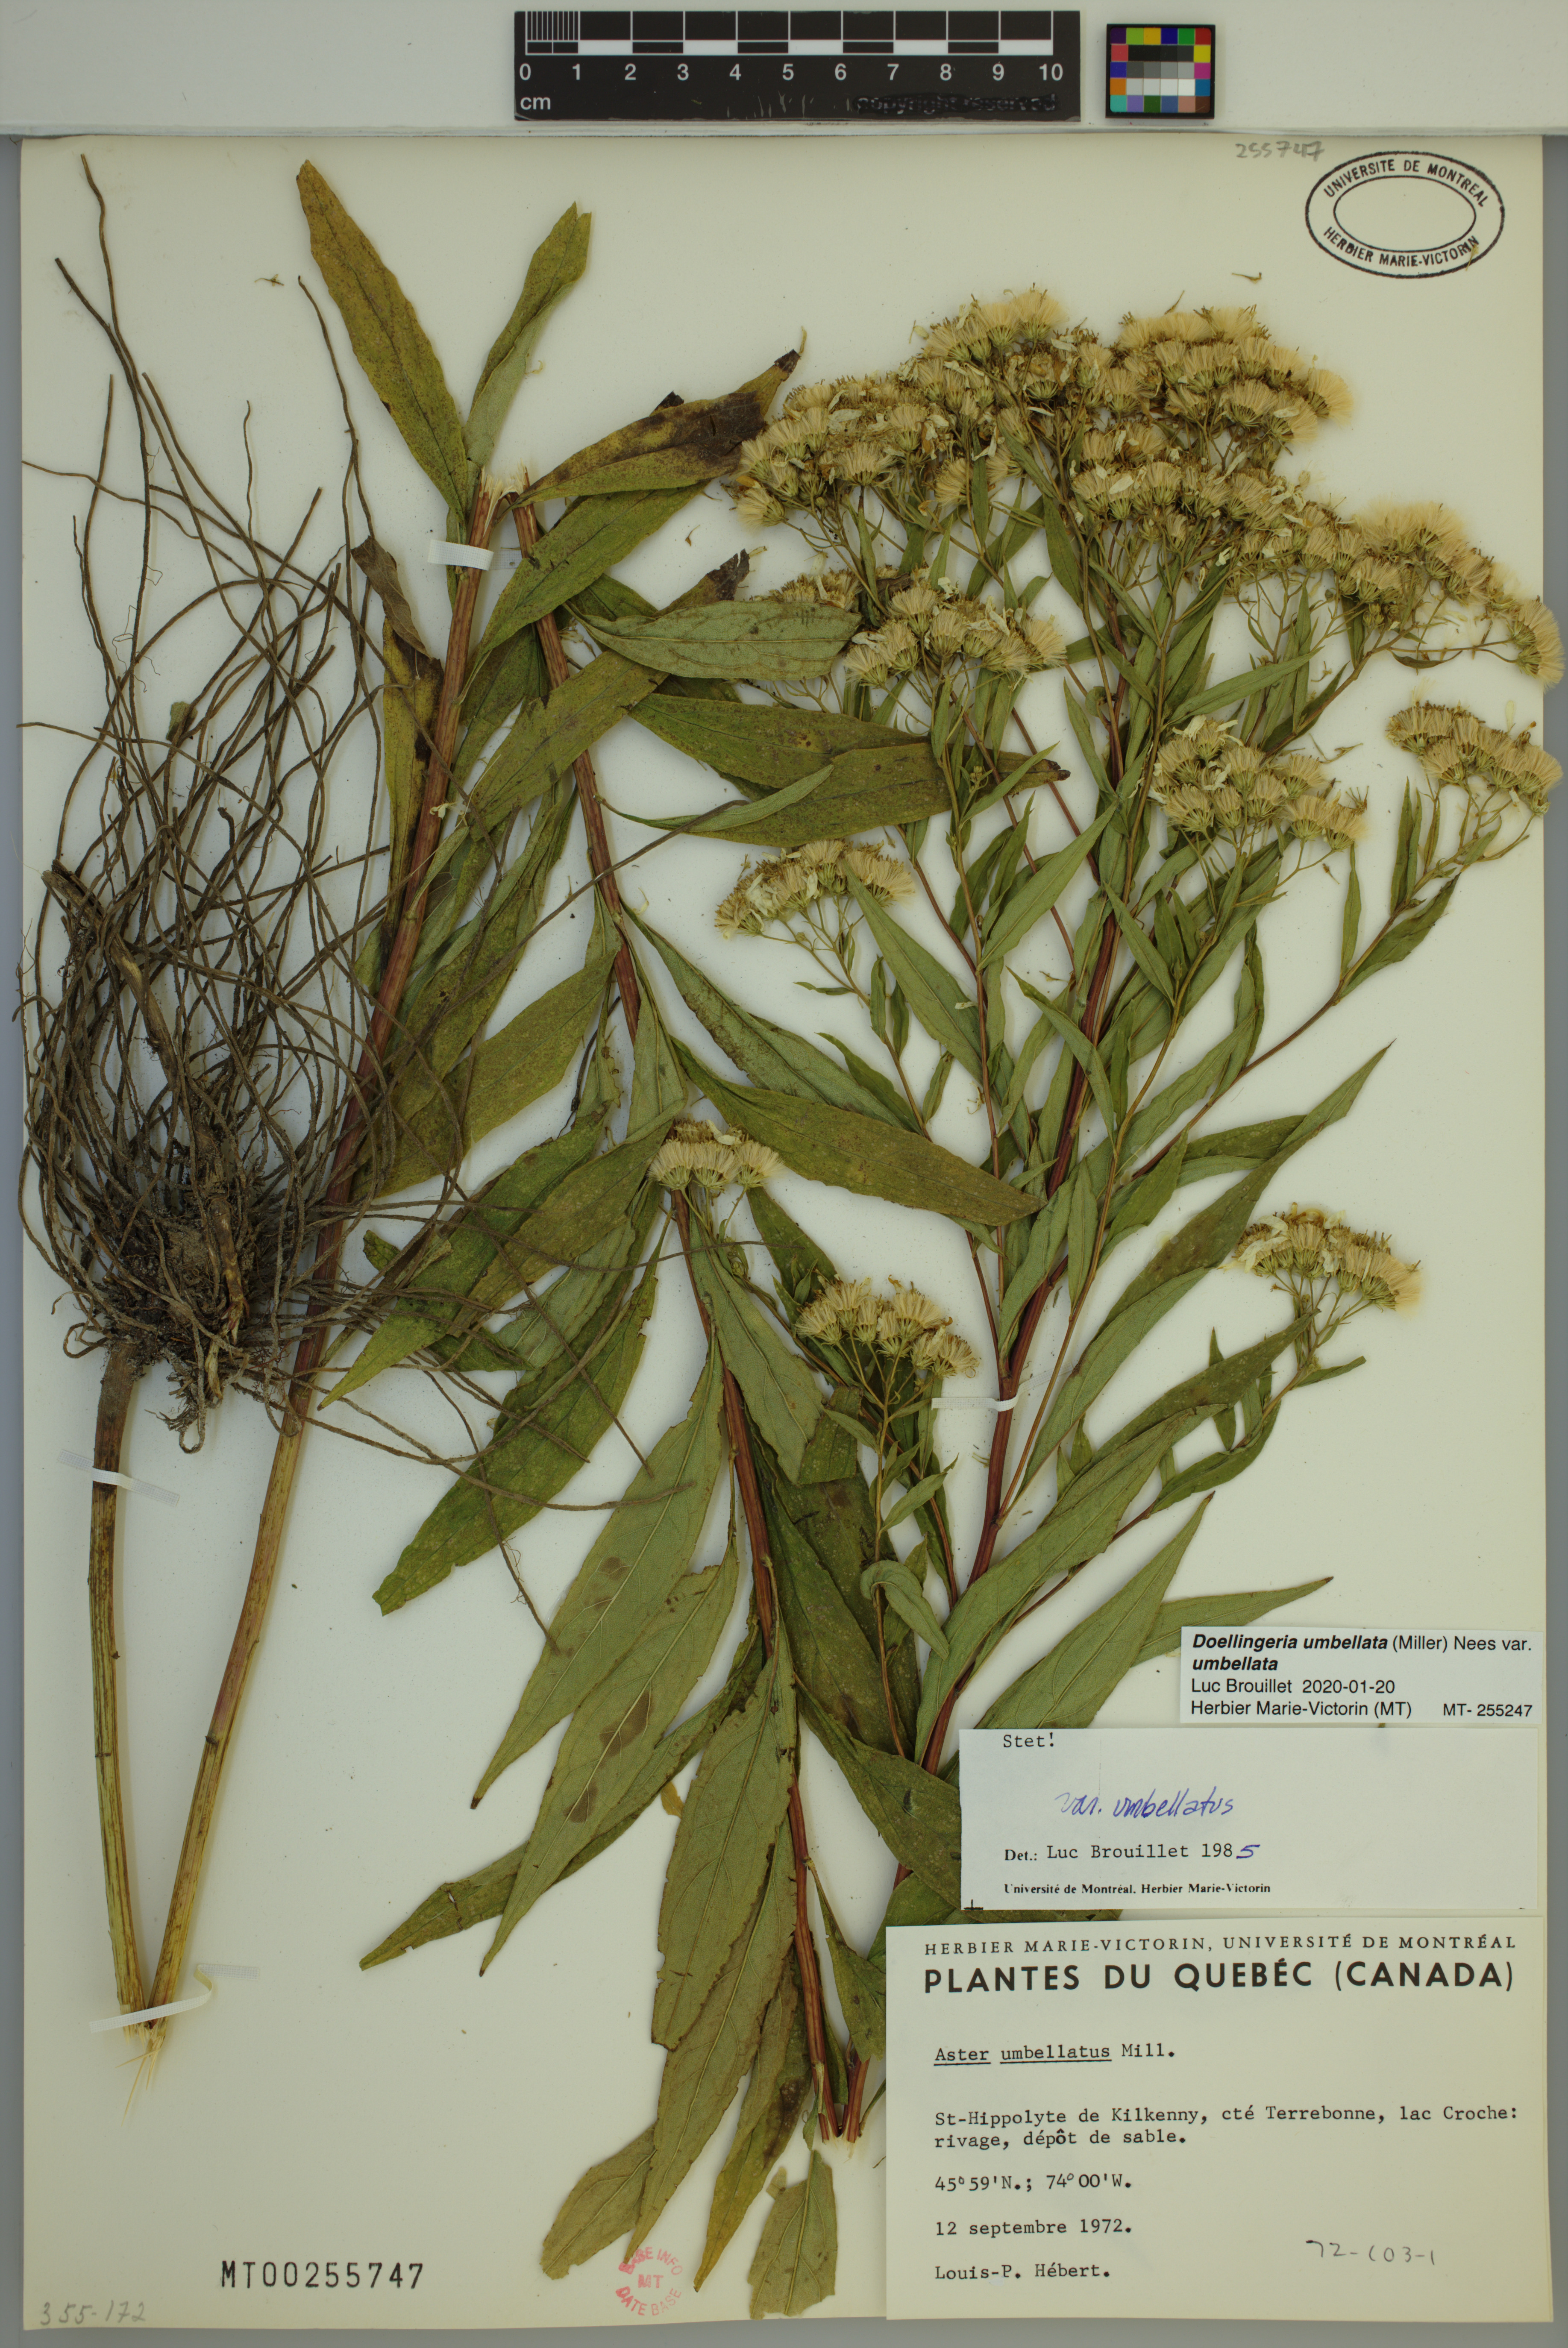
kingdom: Plantae
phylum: Tracheophyta
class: Magnoliopsida
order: Asterales
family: Asteraceae
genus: Doellingeria
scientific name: Doellingeria umbellata
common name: Flat-top white aster
